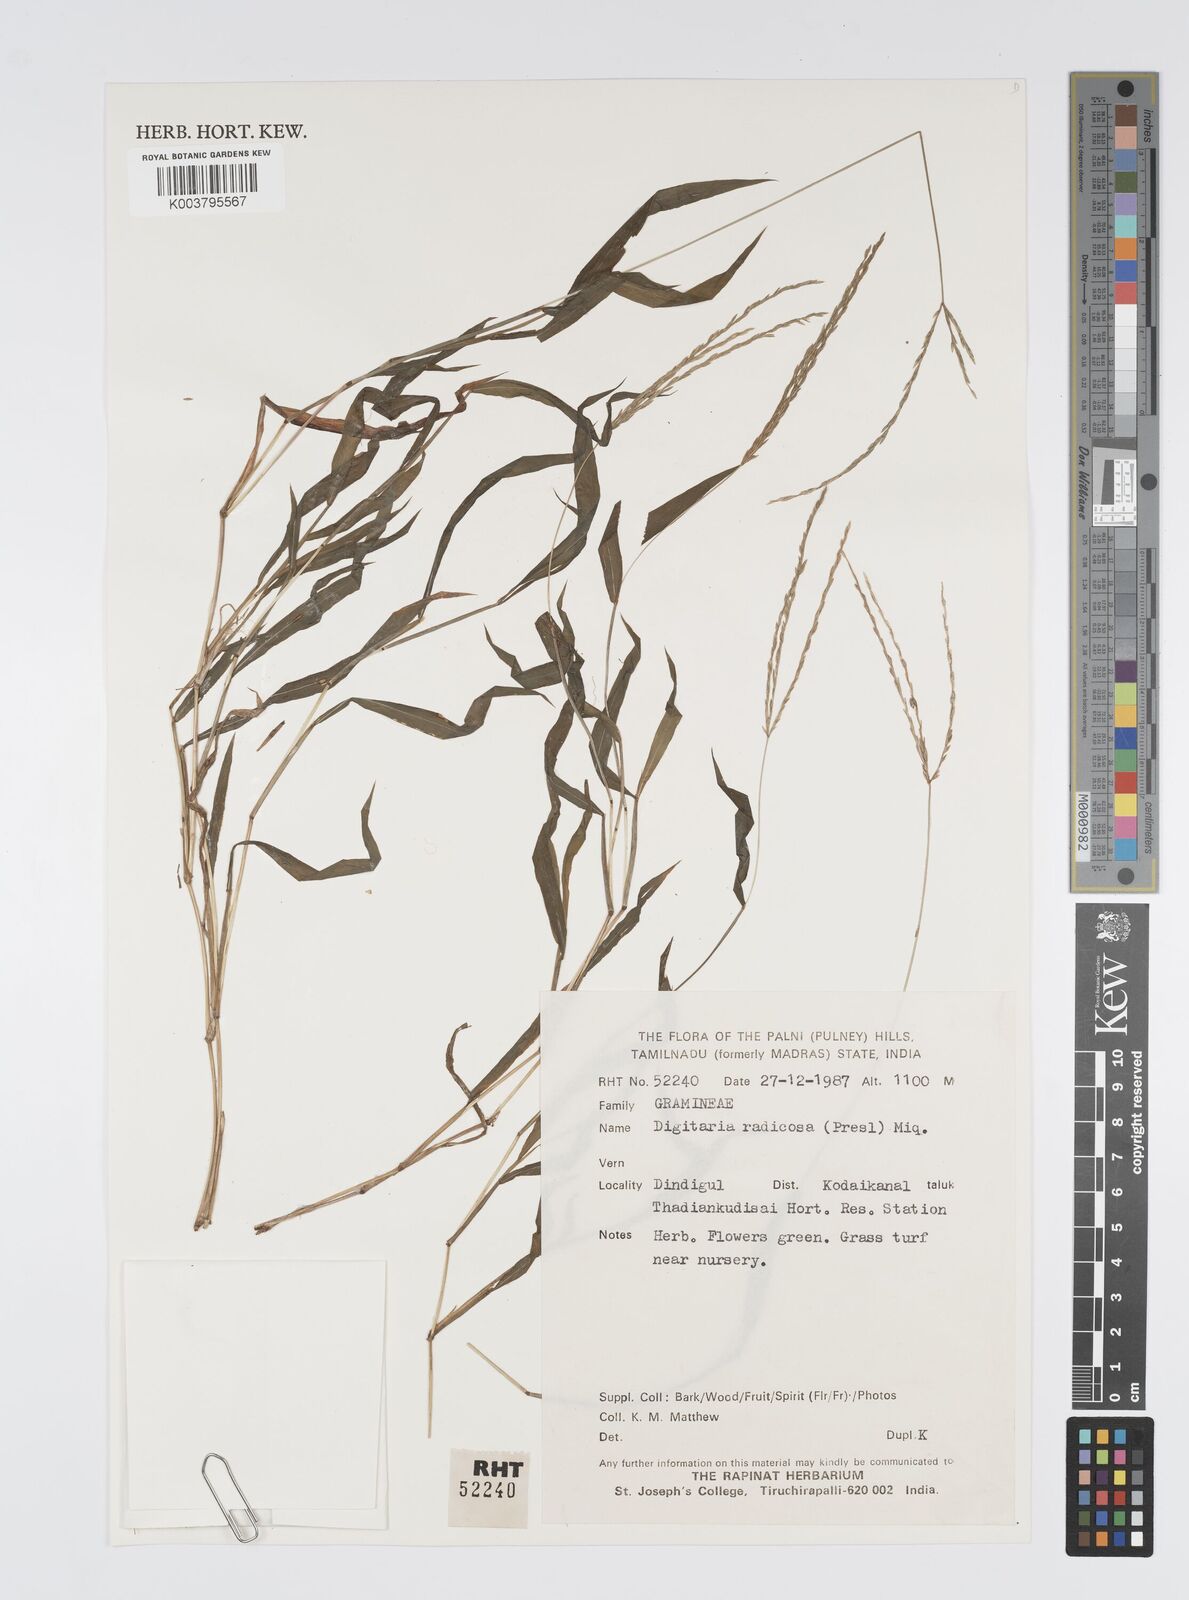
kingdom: Plantae
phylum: Tracheophyta
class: Liliopsida
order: Poales
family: Poaceae
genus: Digitaria
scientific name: Digitaria radicosa
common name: Trailing crabgrass
